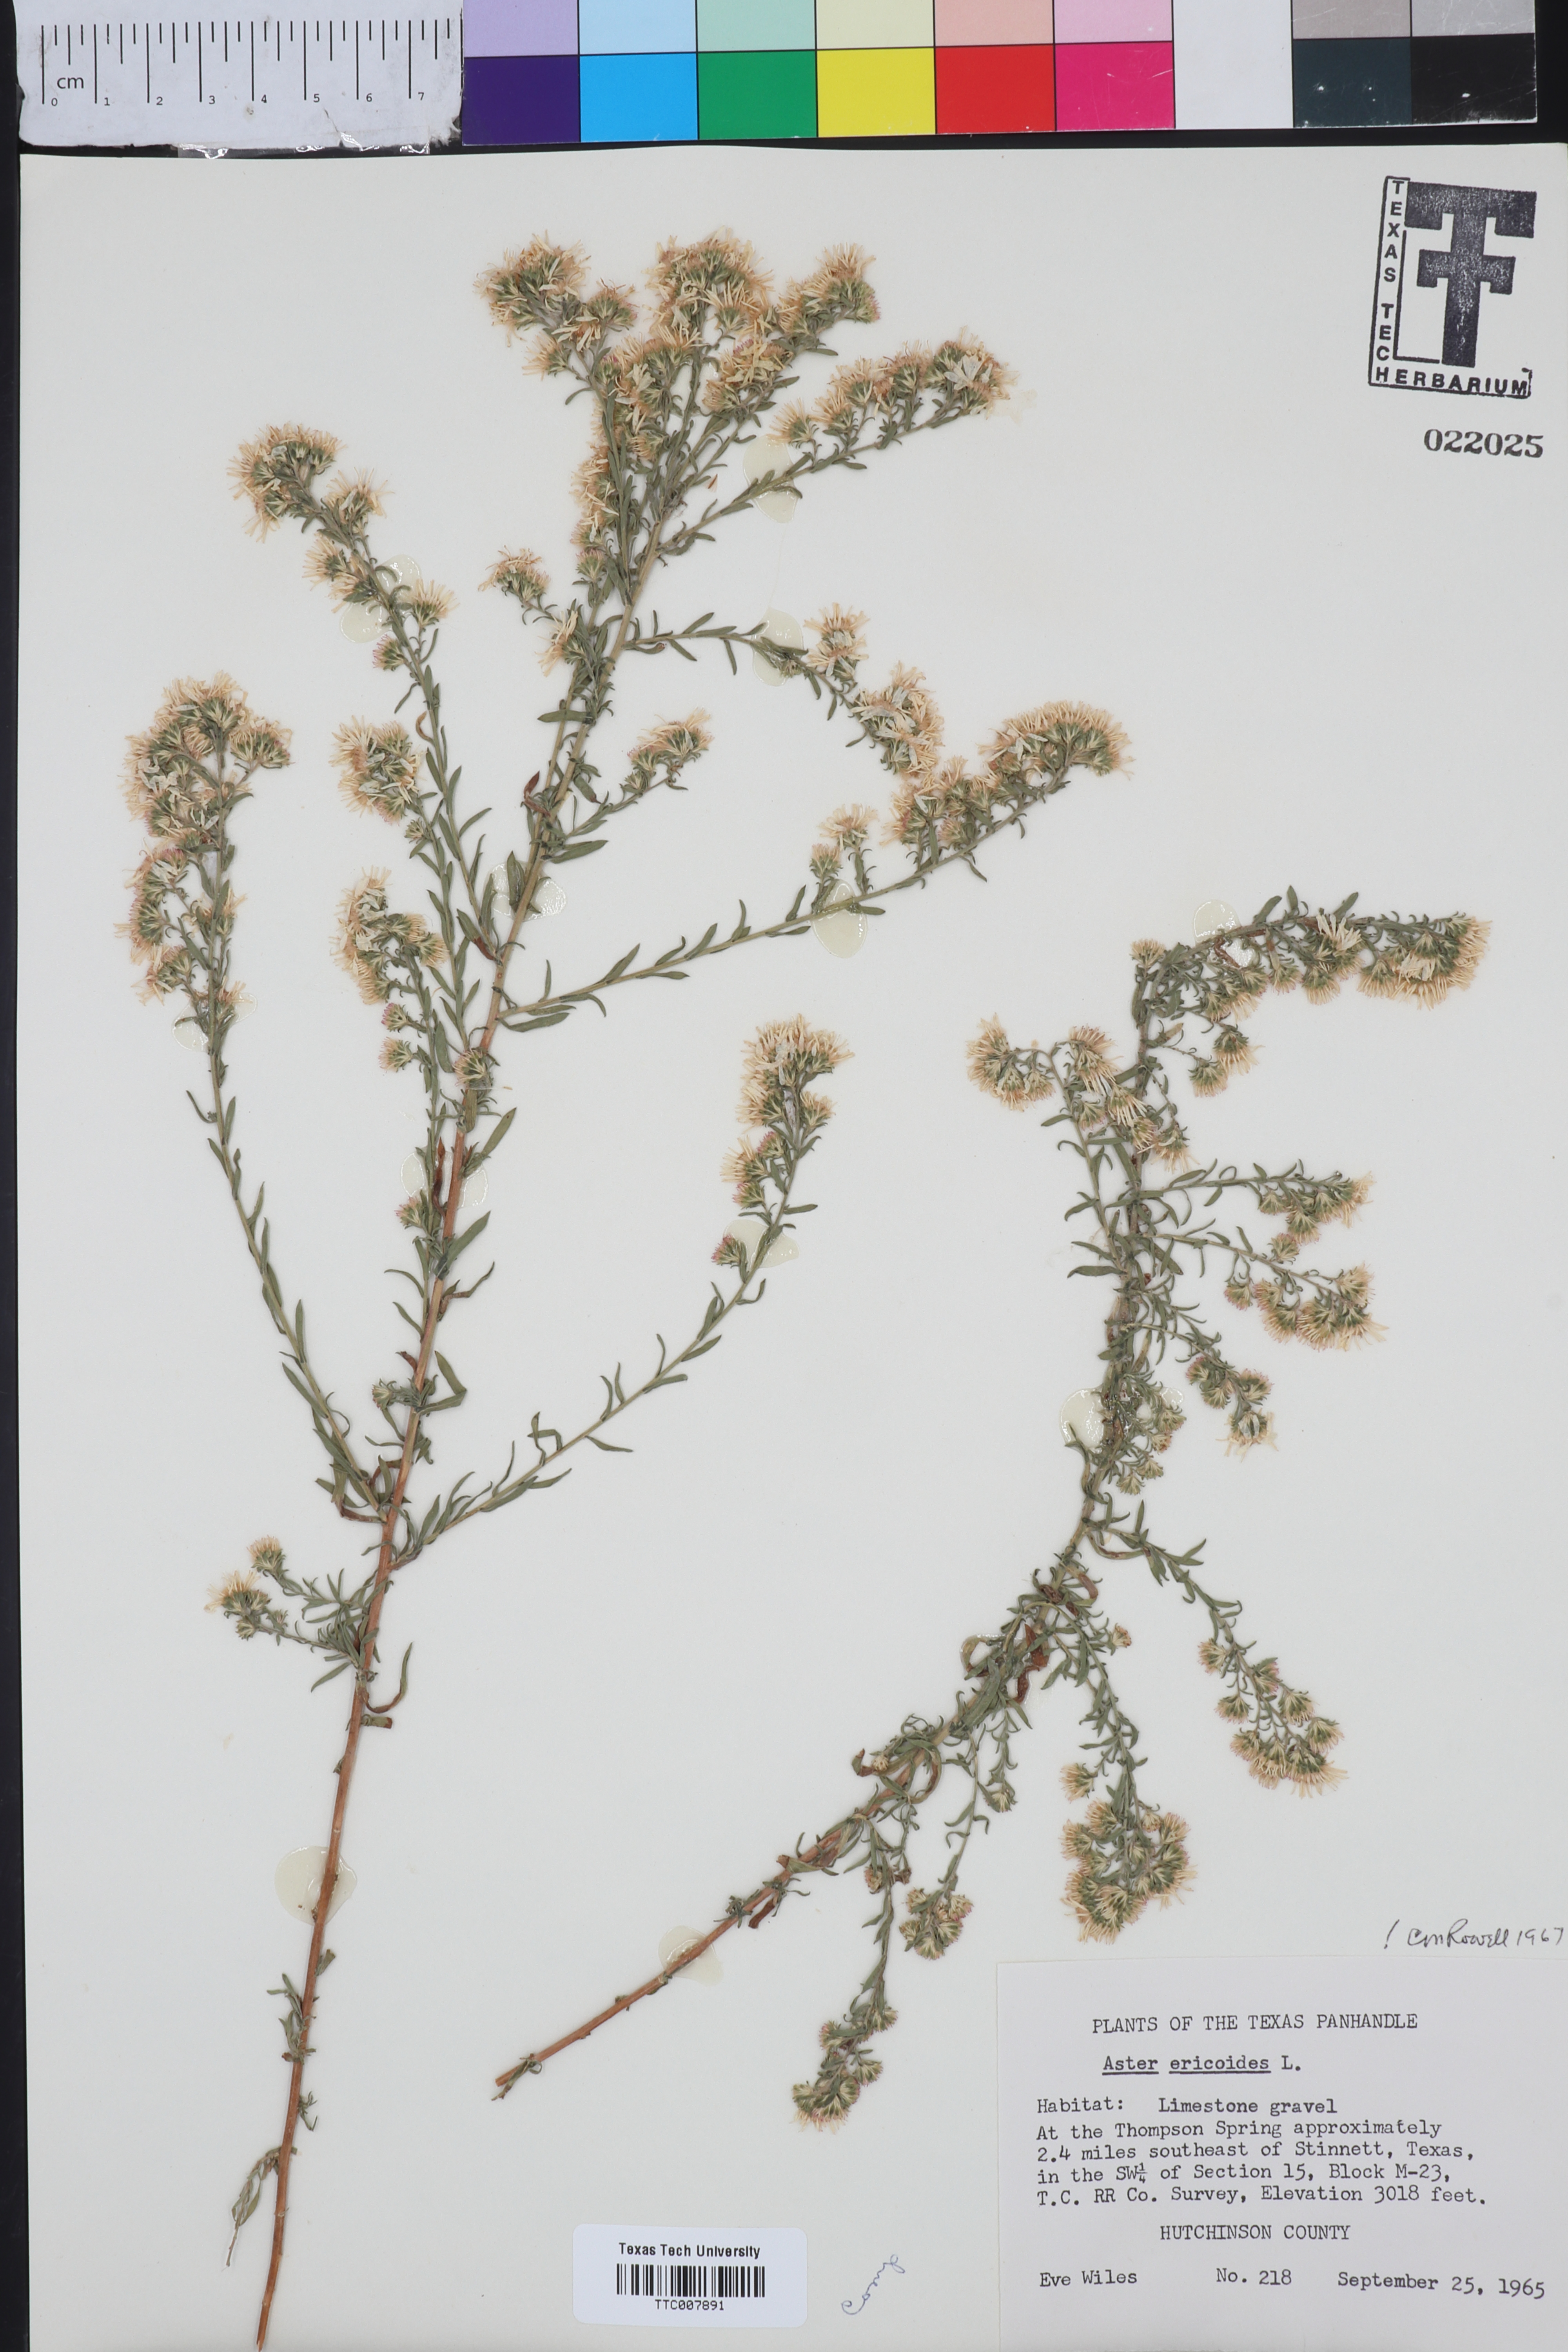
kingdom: Plantae
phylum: Tracheophyta
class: Magnoliopsida
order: Asterales
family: Asteraceae
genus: Symphyotrichum
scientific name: Symphyotrichum ericoides
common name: Heath aster
